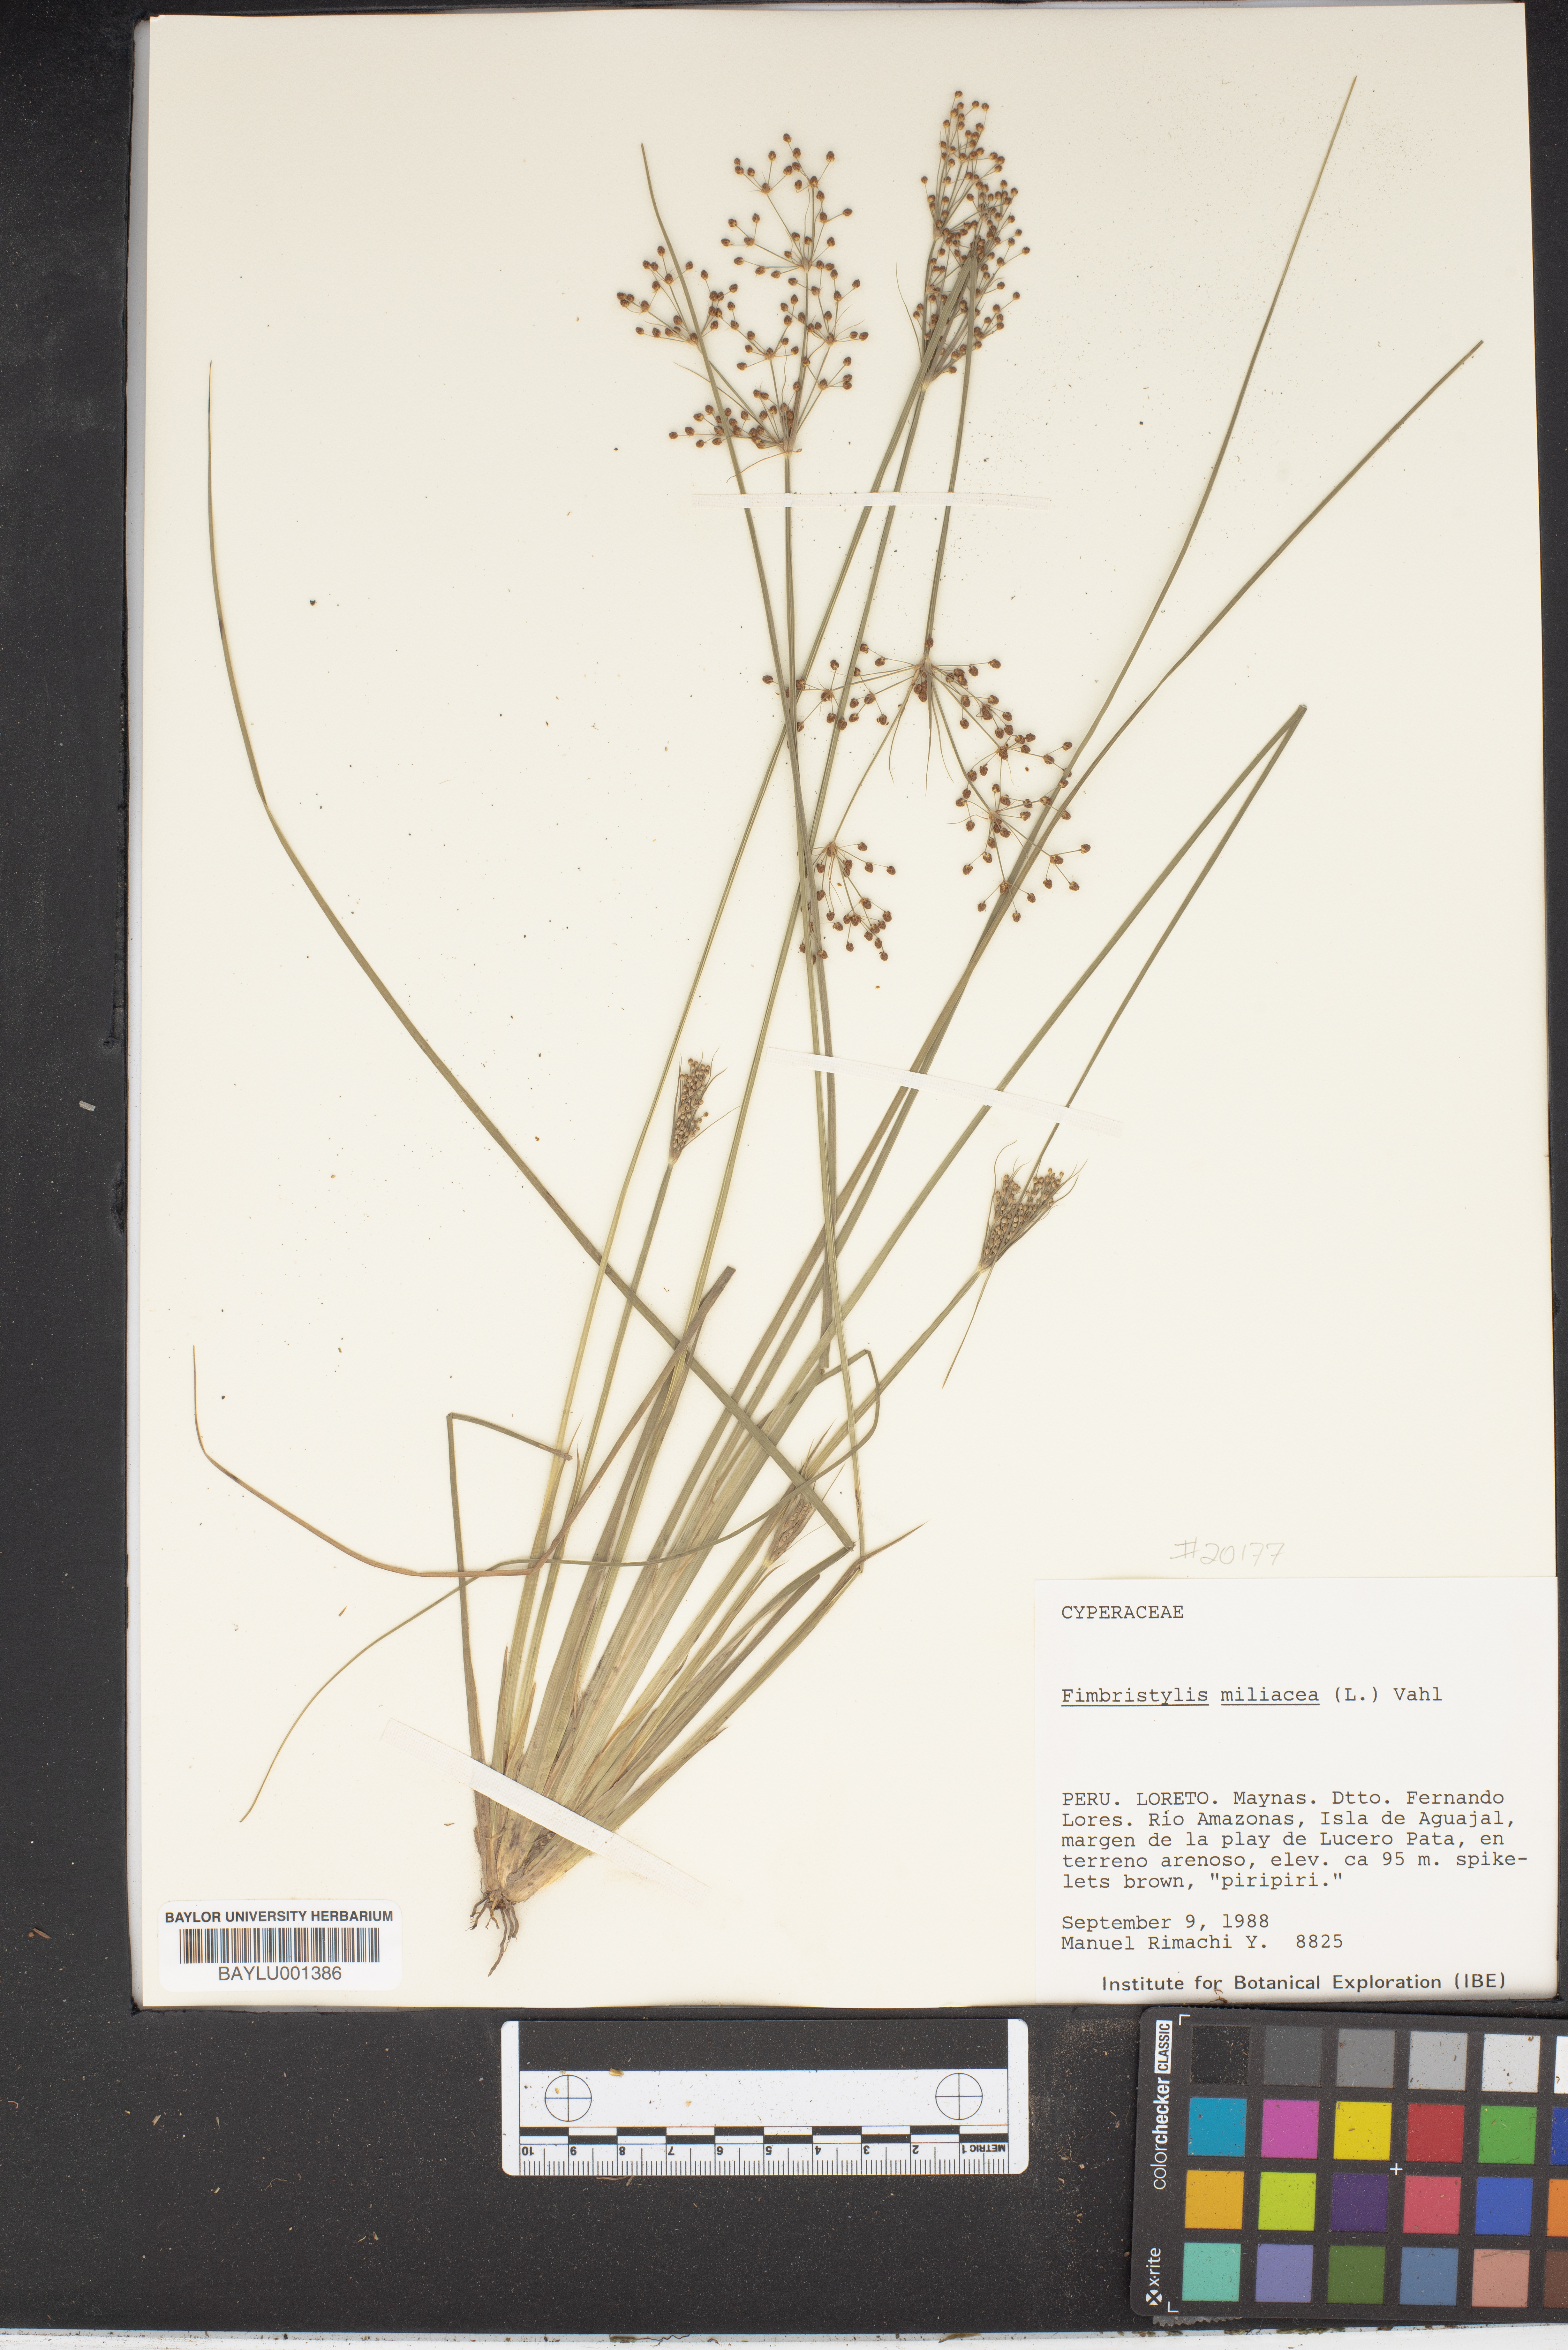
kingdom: Plantae
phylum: Tracheophyta
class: Liliopsida
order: Poales
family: Cyperaceae
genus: Fimbristylis
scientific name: Fimbristylis quinquangularis
